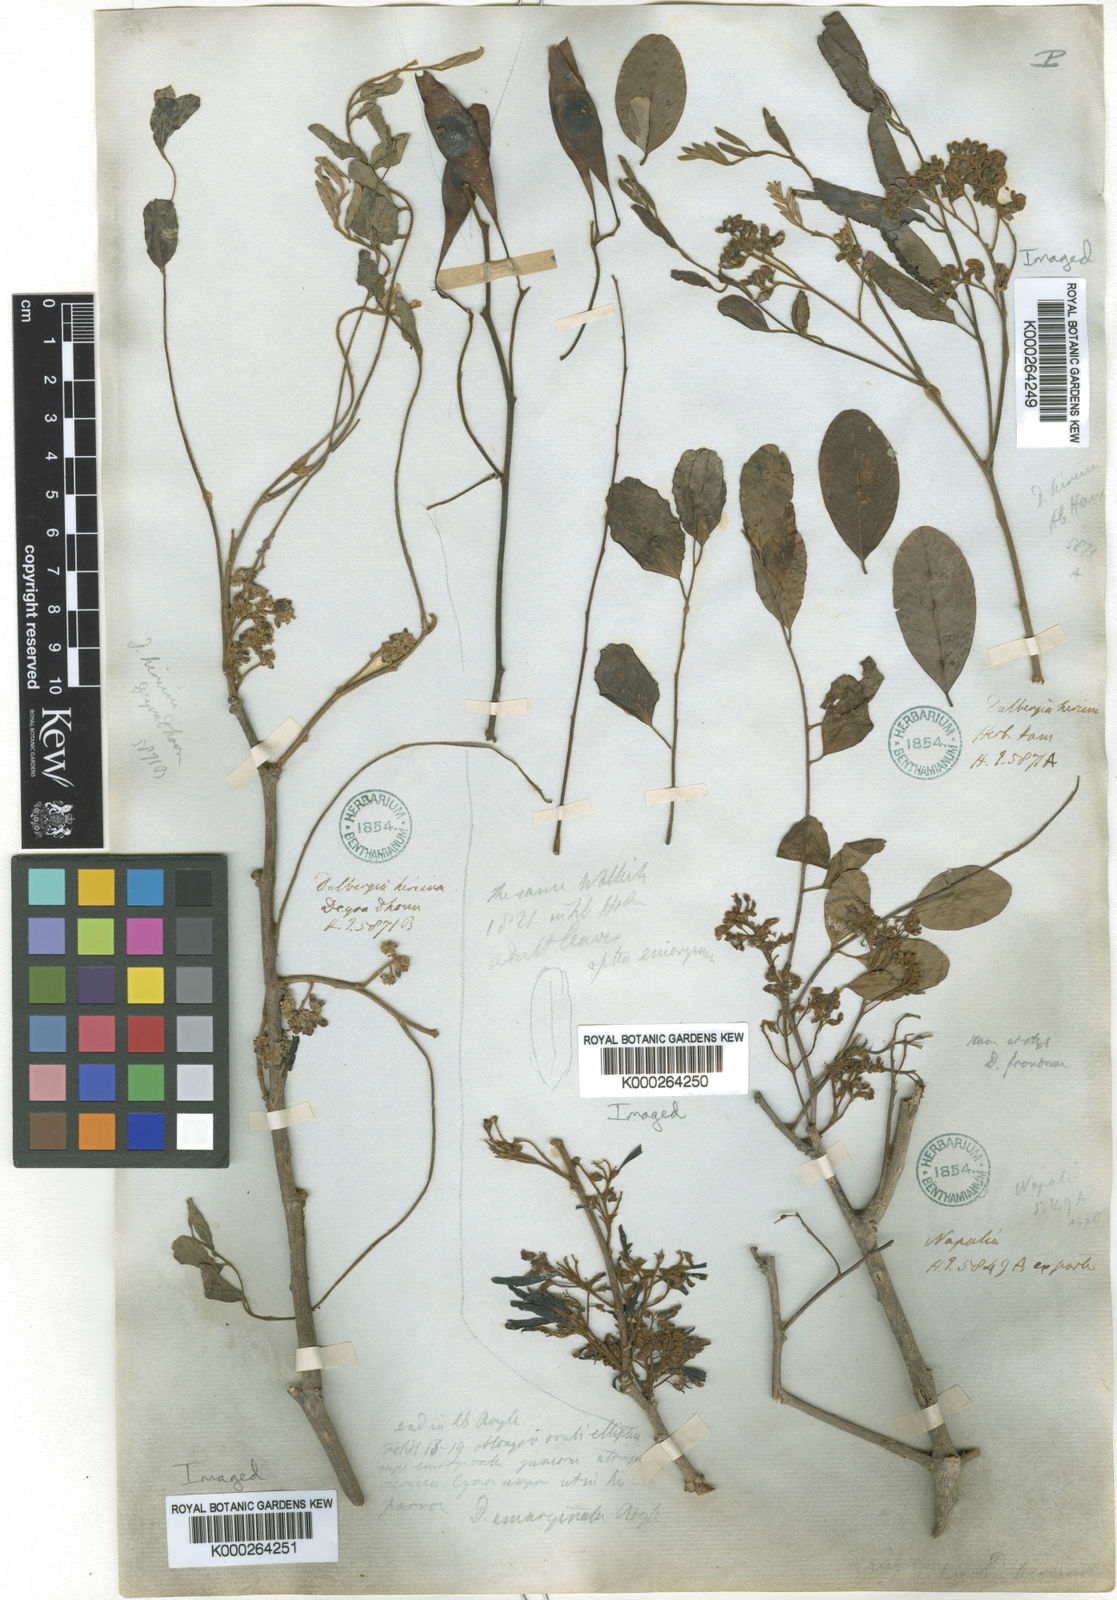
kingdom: Plantae
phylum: Tracheophyta
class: Magnoliopsida
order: Fabales
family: Fabaceae
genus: Dalbergia
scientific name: Dalbergia sericea
